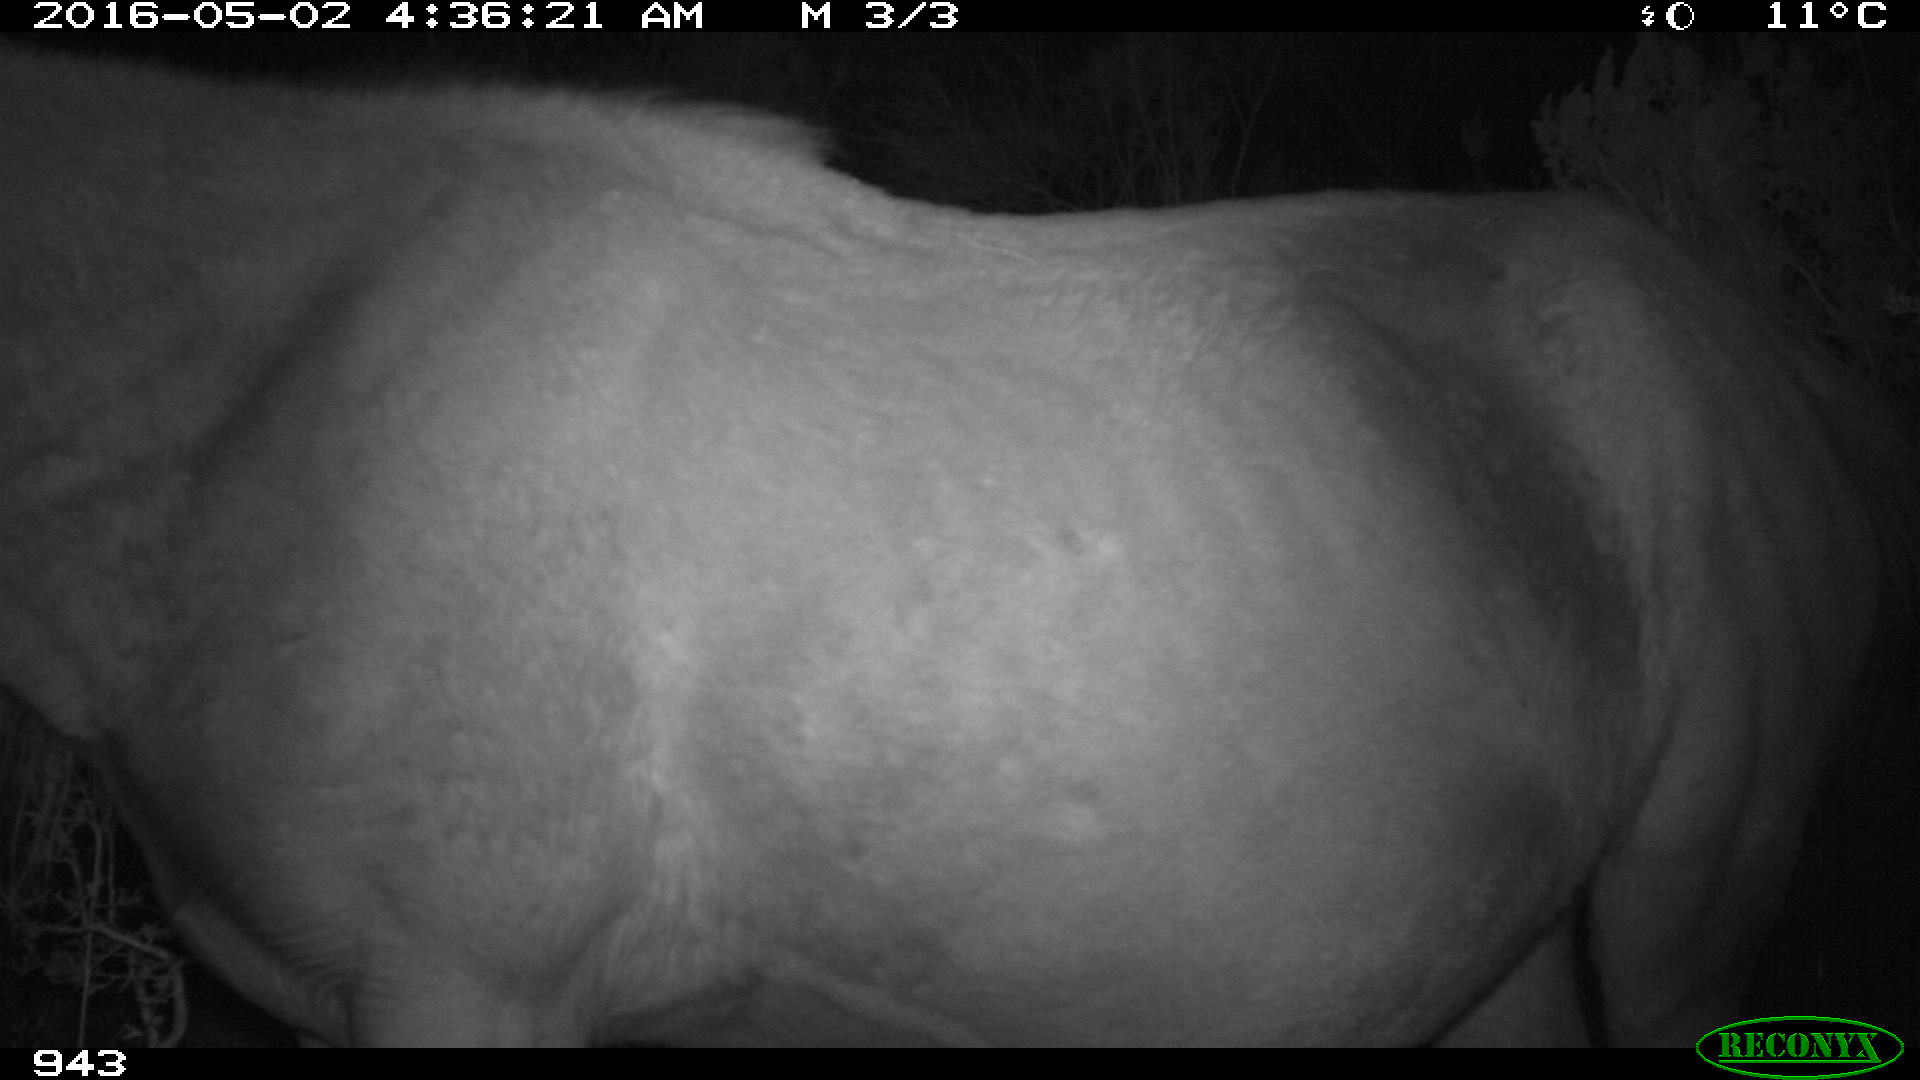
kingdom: Animalia
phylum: Chordata
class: Mammalia
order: Perissodactyla
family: Equidae
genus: Equus
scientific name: Equus caballus
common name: Horse
